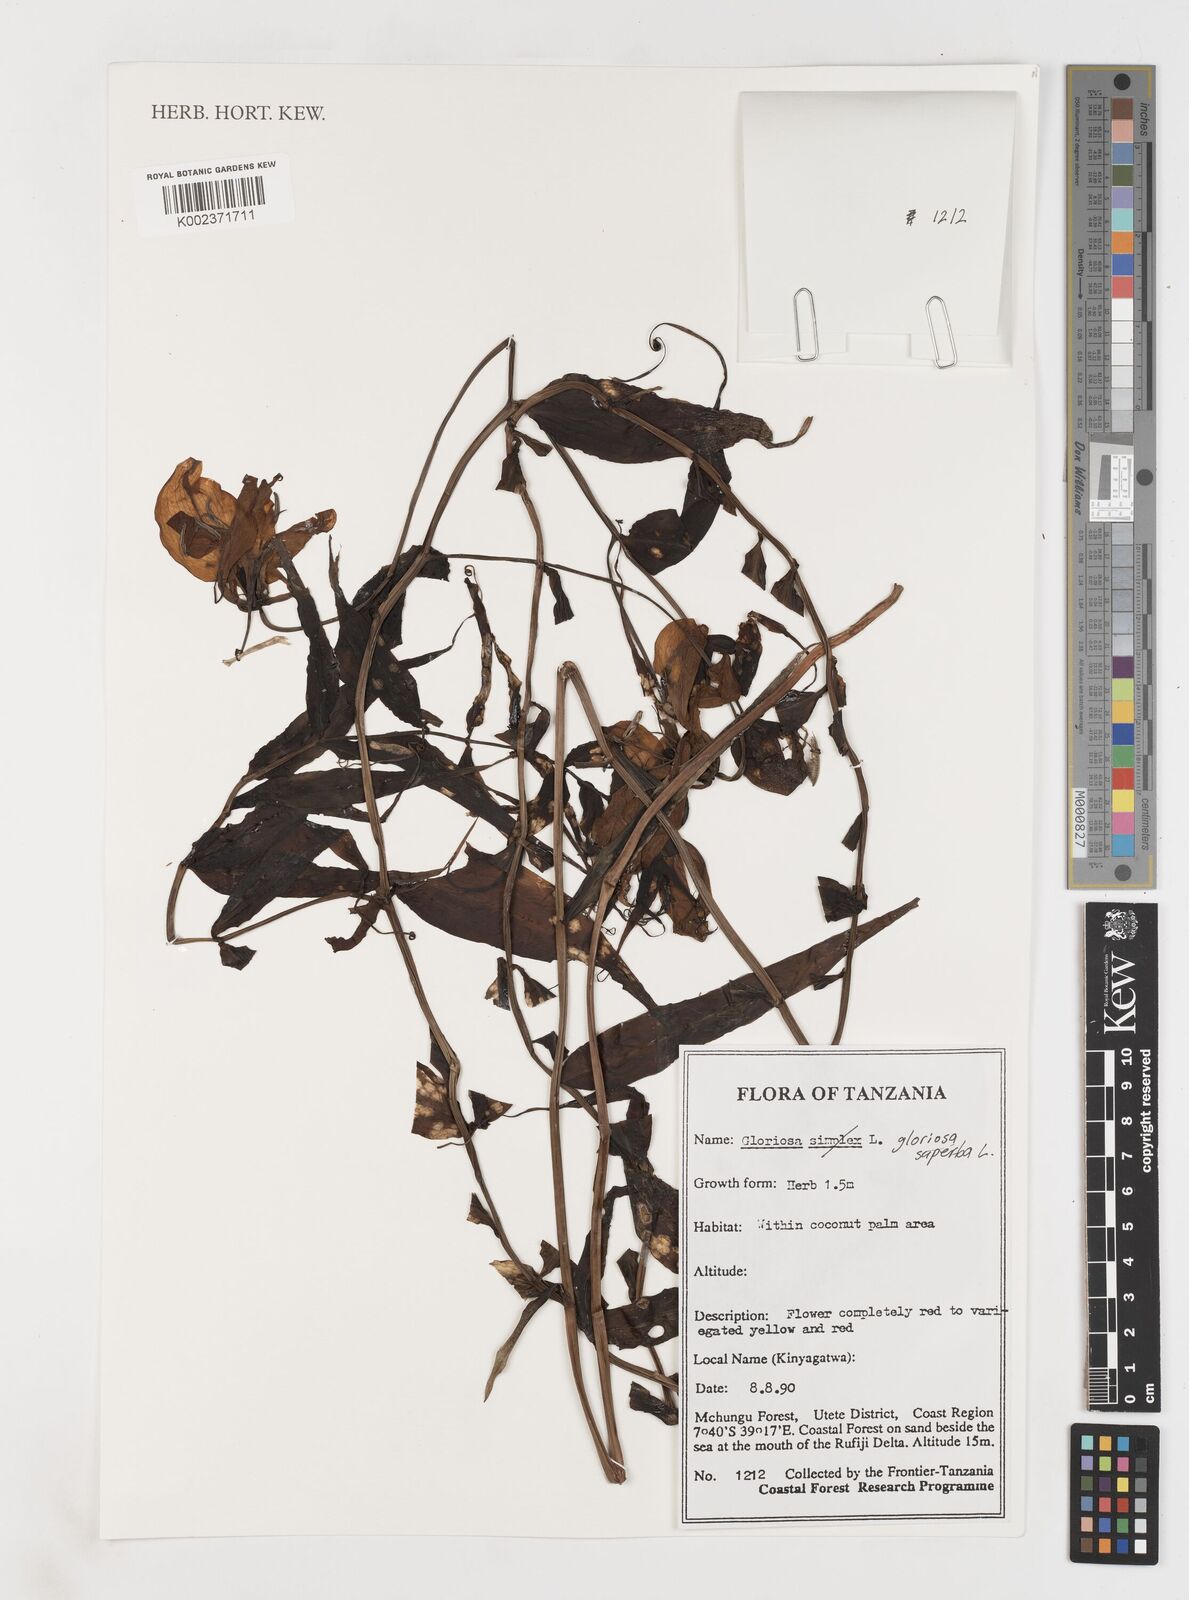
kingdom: Plantae
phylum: Tracheophyta
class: Liliopsida
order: Liliales
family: Colchicaceae
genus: Gloriosa
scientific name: Gloriosa simplex
